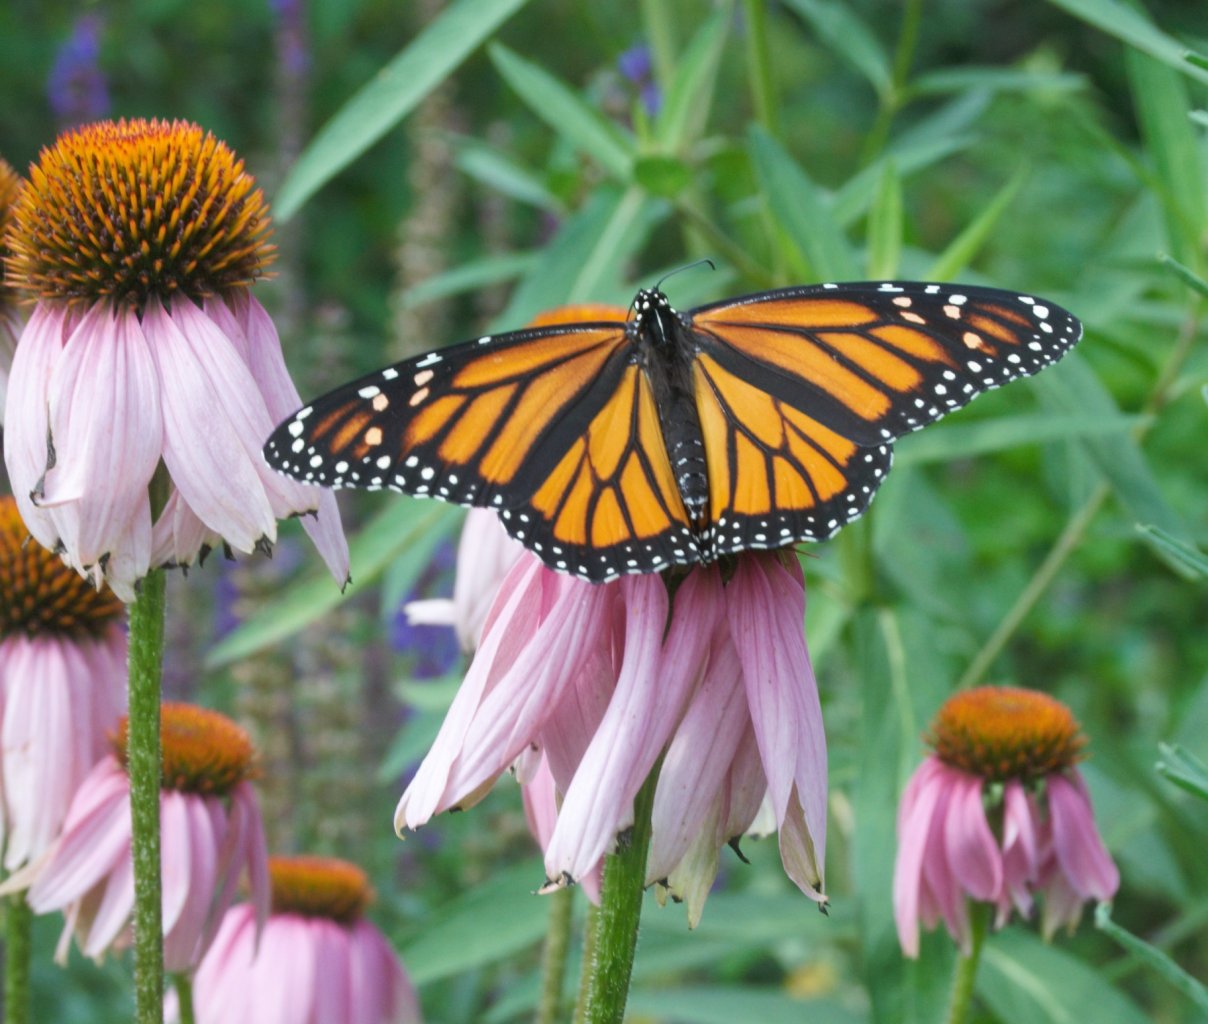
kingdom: Animalia
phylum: Arthropoda
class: Insecta
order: Lepidoptera
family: Nymphalidae
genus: Danaus
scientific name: Danaus plexippus
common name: Monarch
